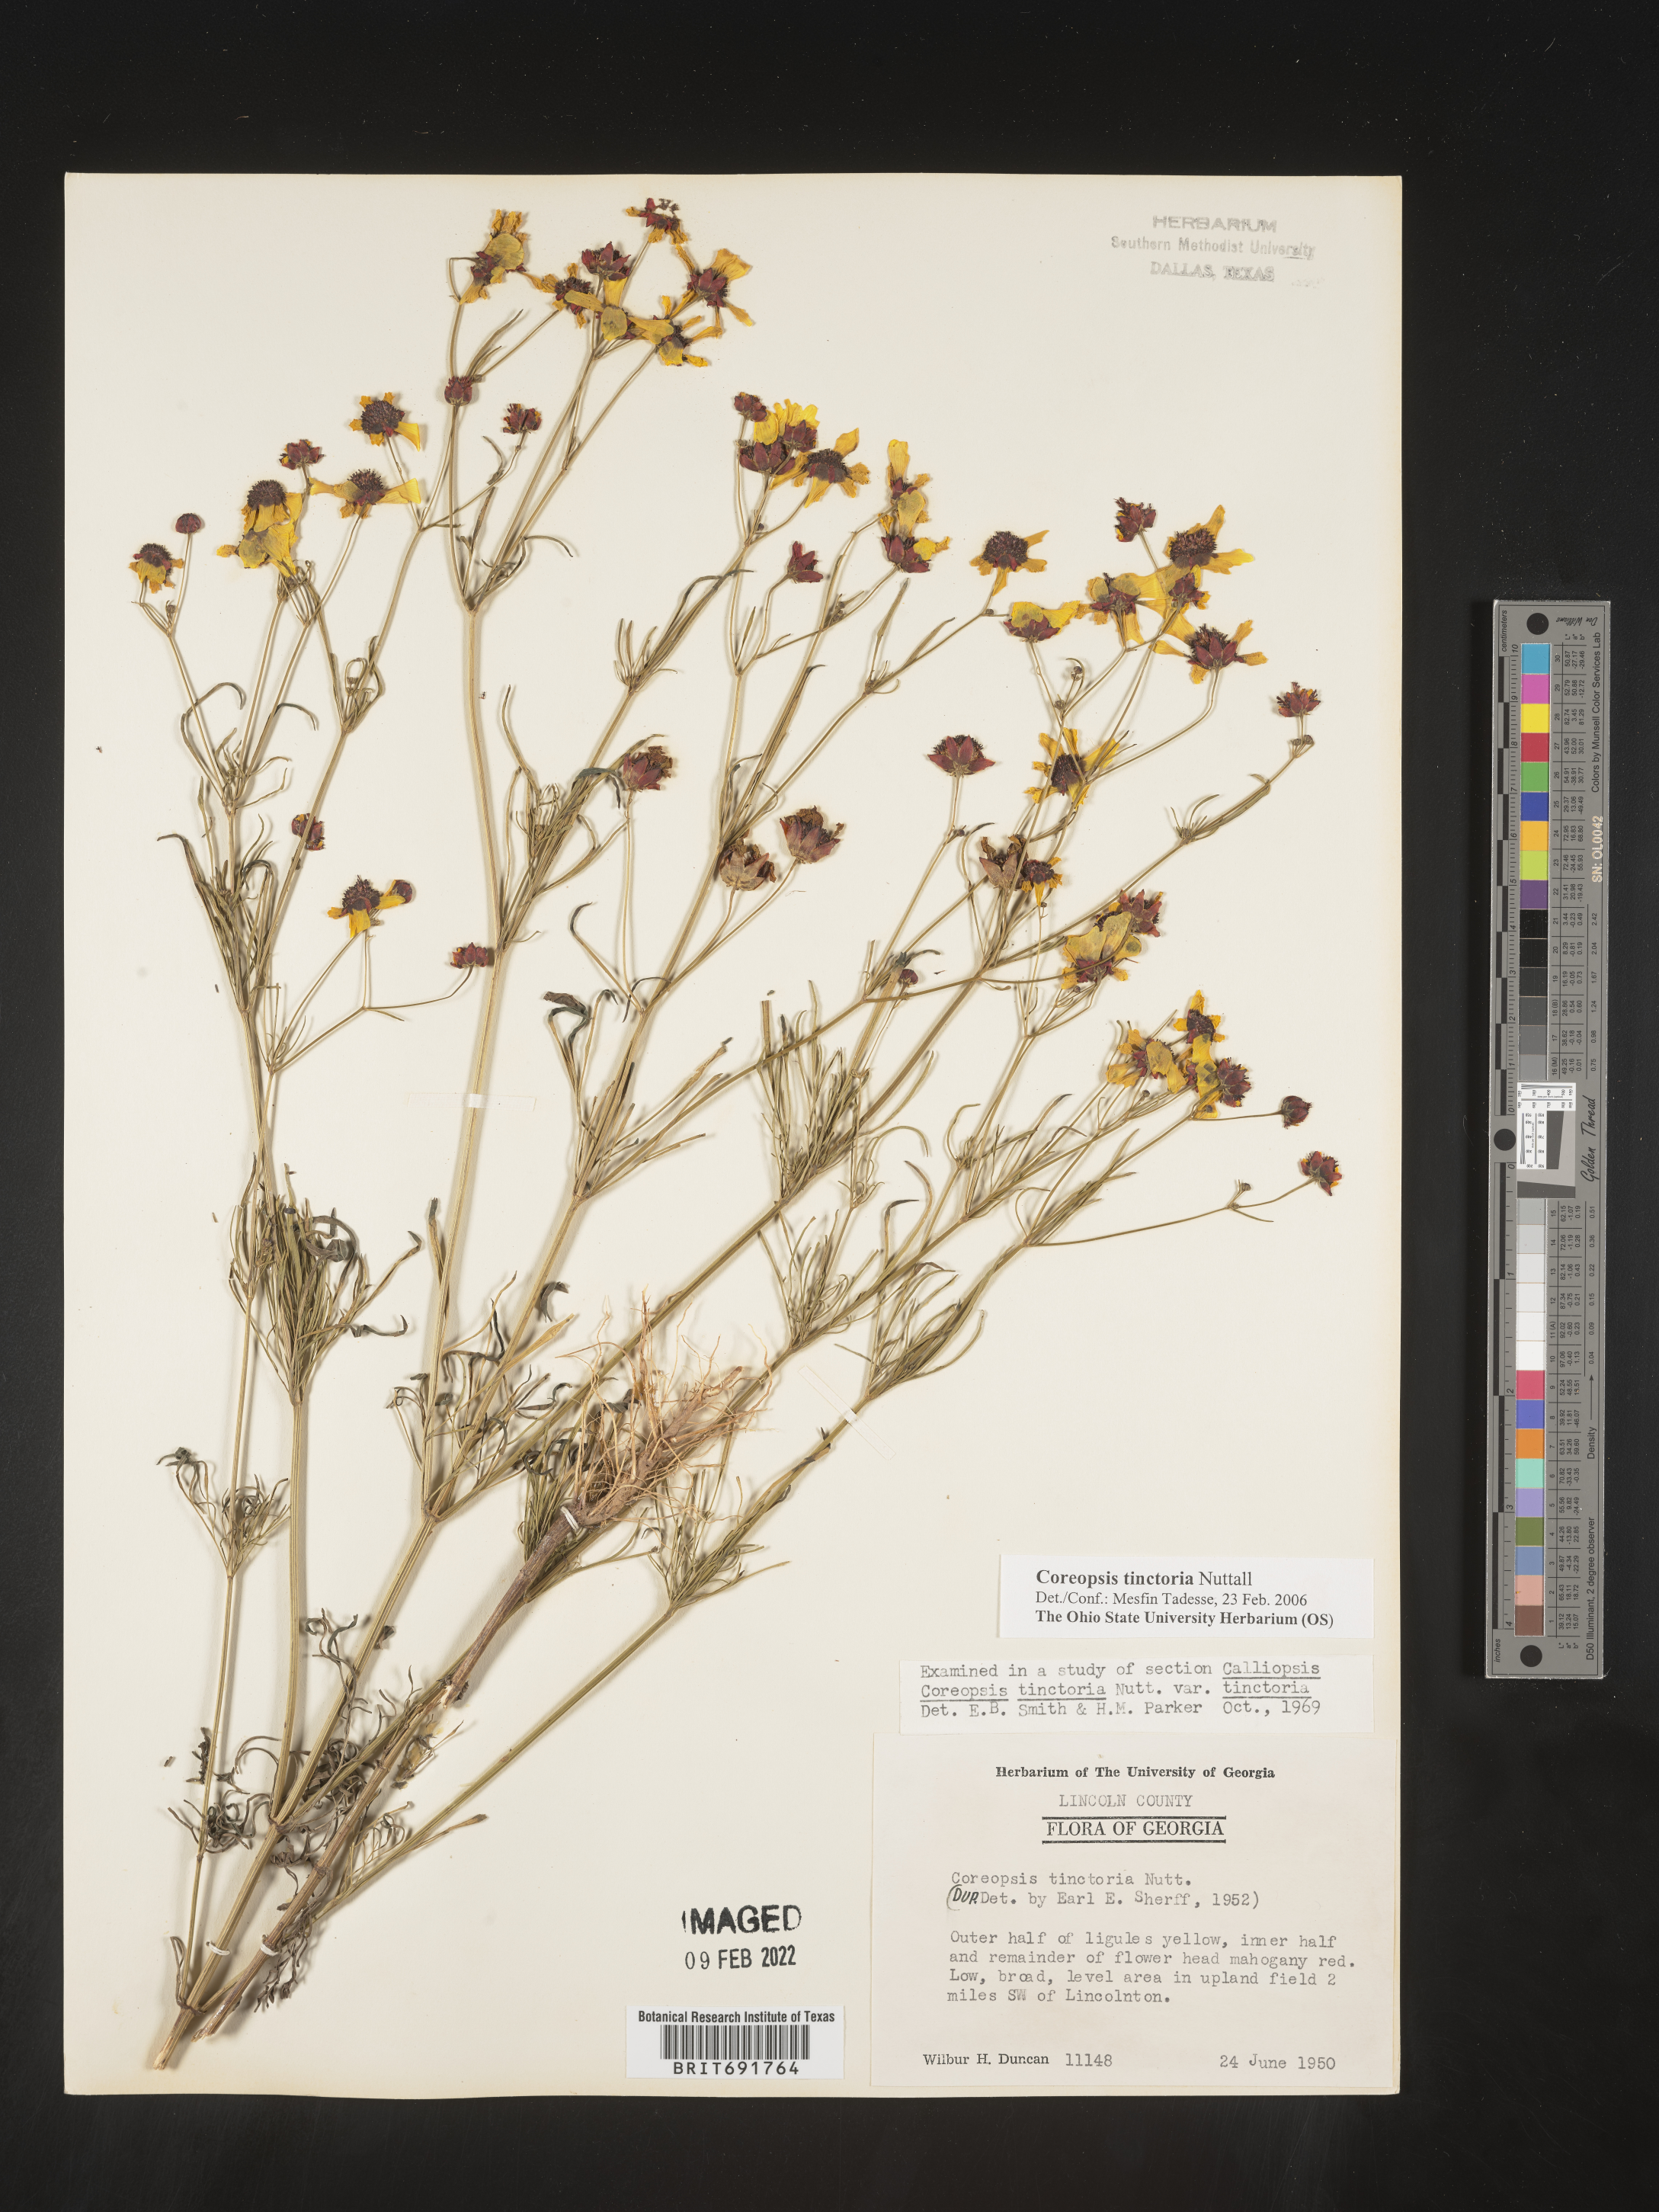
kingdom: Plantae
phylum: Tracheophyta
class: Magnoliopsida
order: Asterales
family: Asteraceae
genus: Coreopsis
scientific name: Coreopsis tinctoria
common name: Garden tickseed
